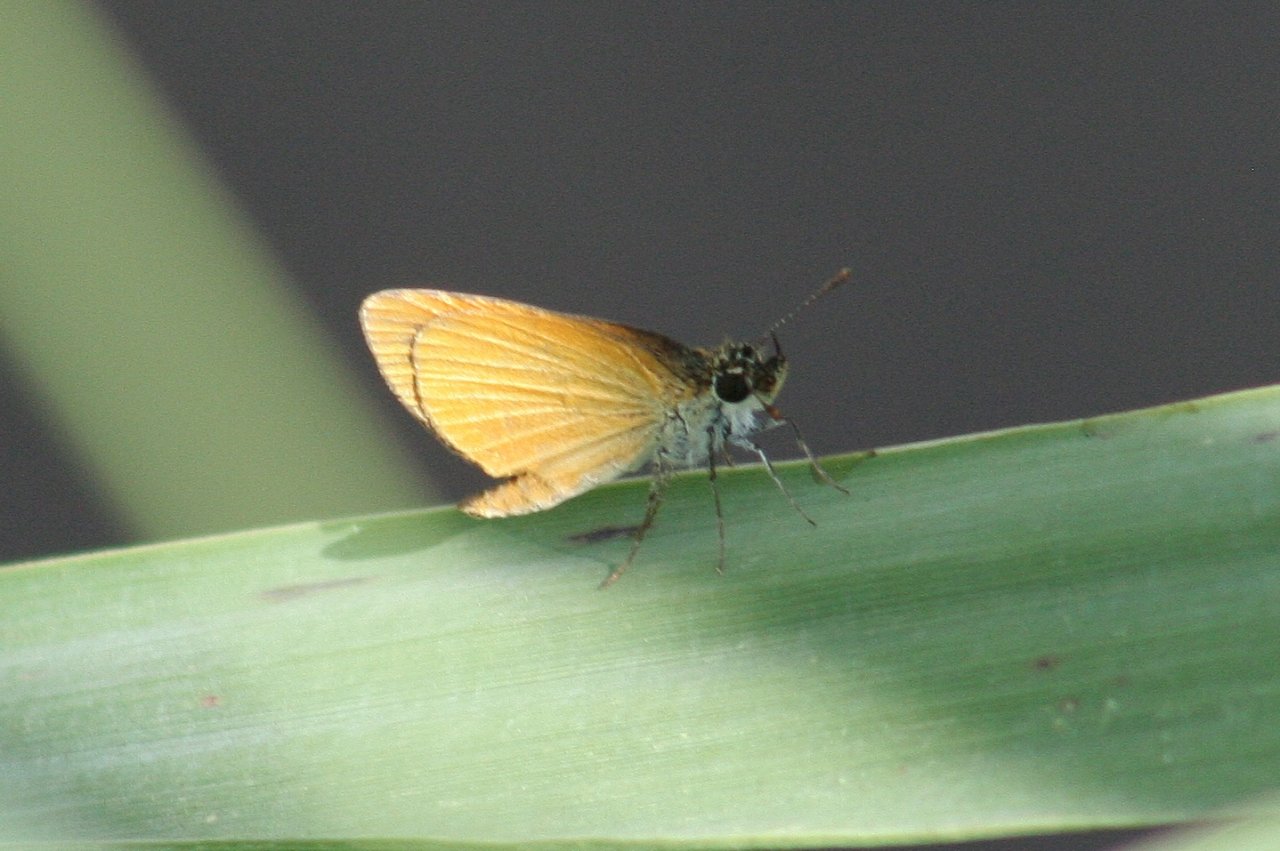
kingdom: Animalia
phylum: Arthropoda
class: Insecta
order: Lepidoptera
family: Hesperiidae
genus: Ancyloxypha
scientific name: Ancyloxypha numitor
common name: Least Skipper
